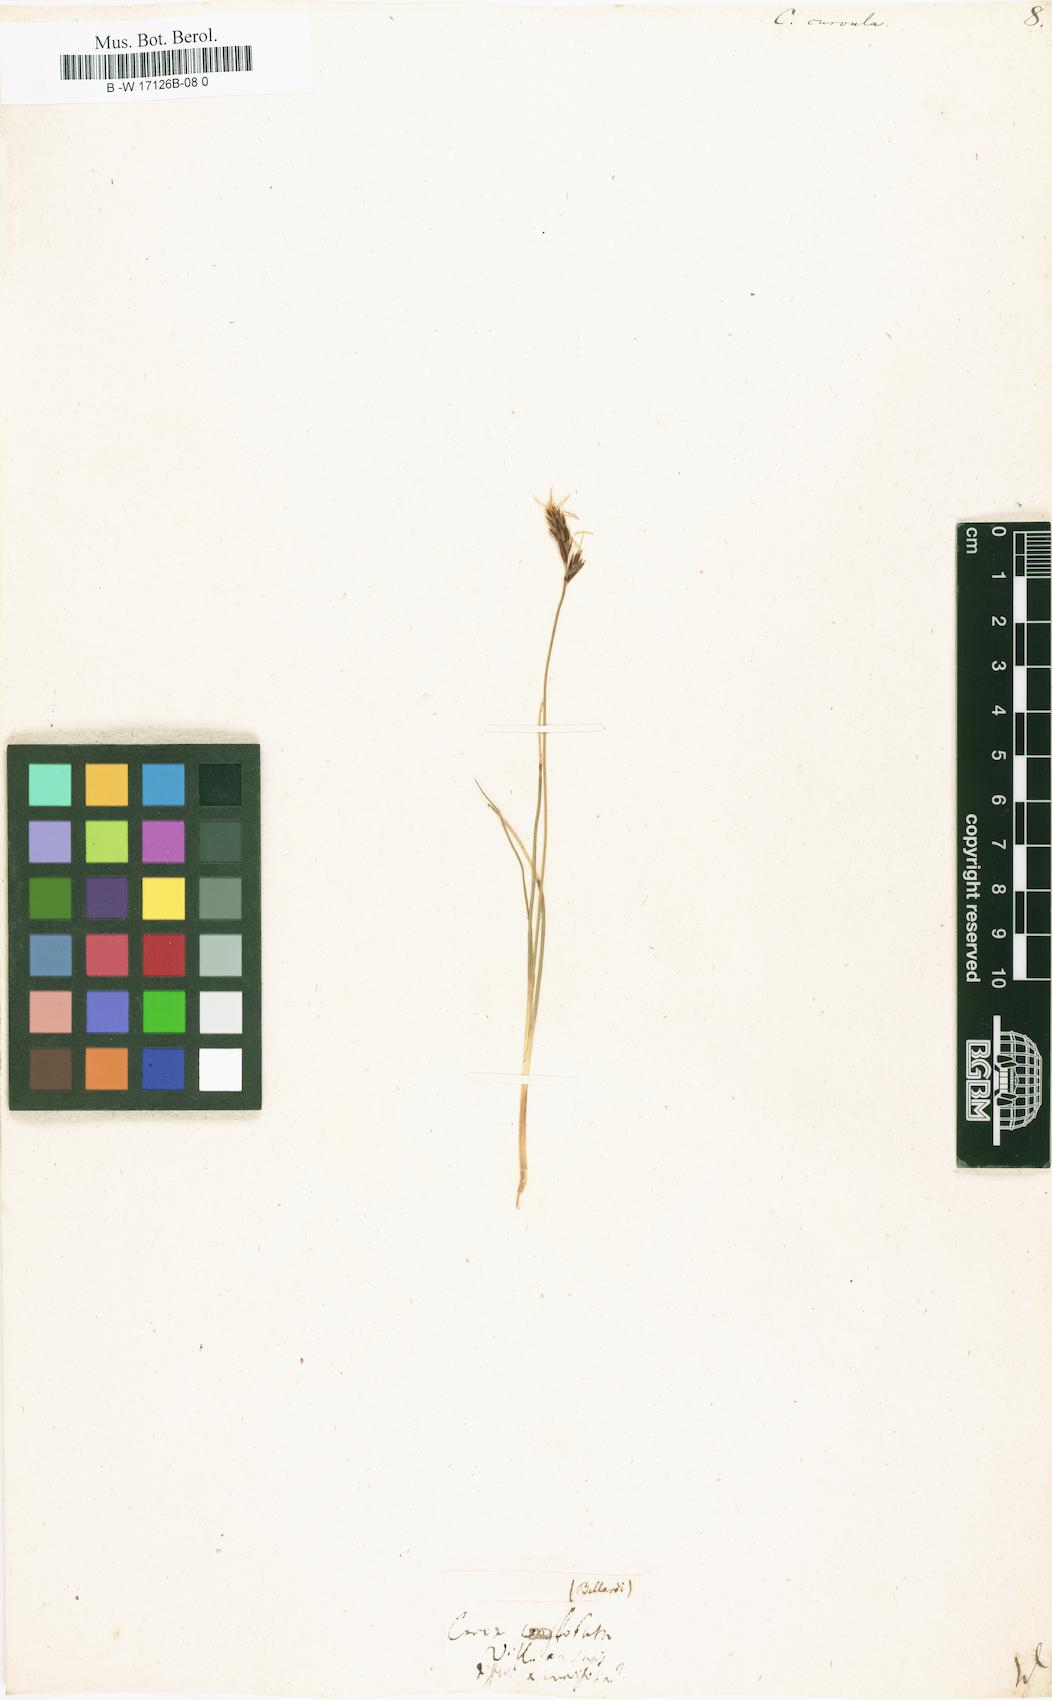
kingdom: Plantae
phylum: Tracheophyta
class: Liliopsida
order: Poales
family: Cyperaceae
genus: Carex
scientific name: Carex curvula
